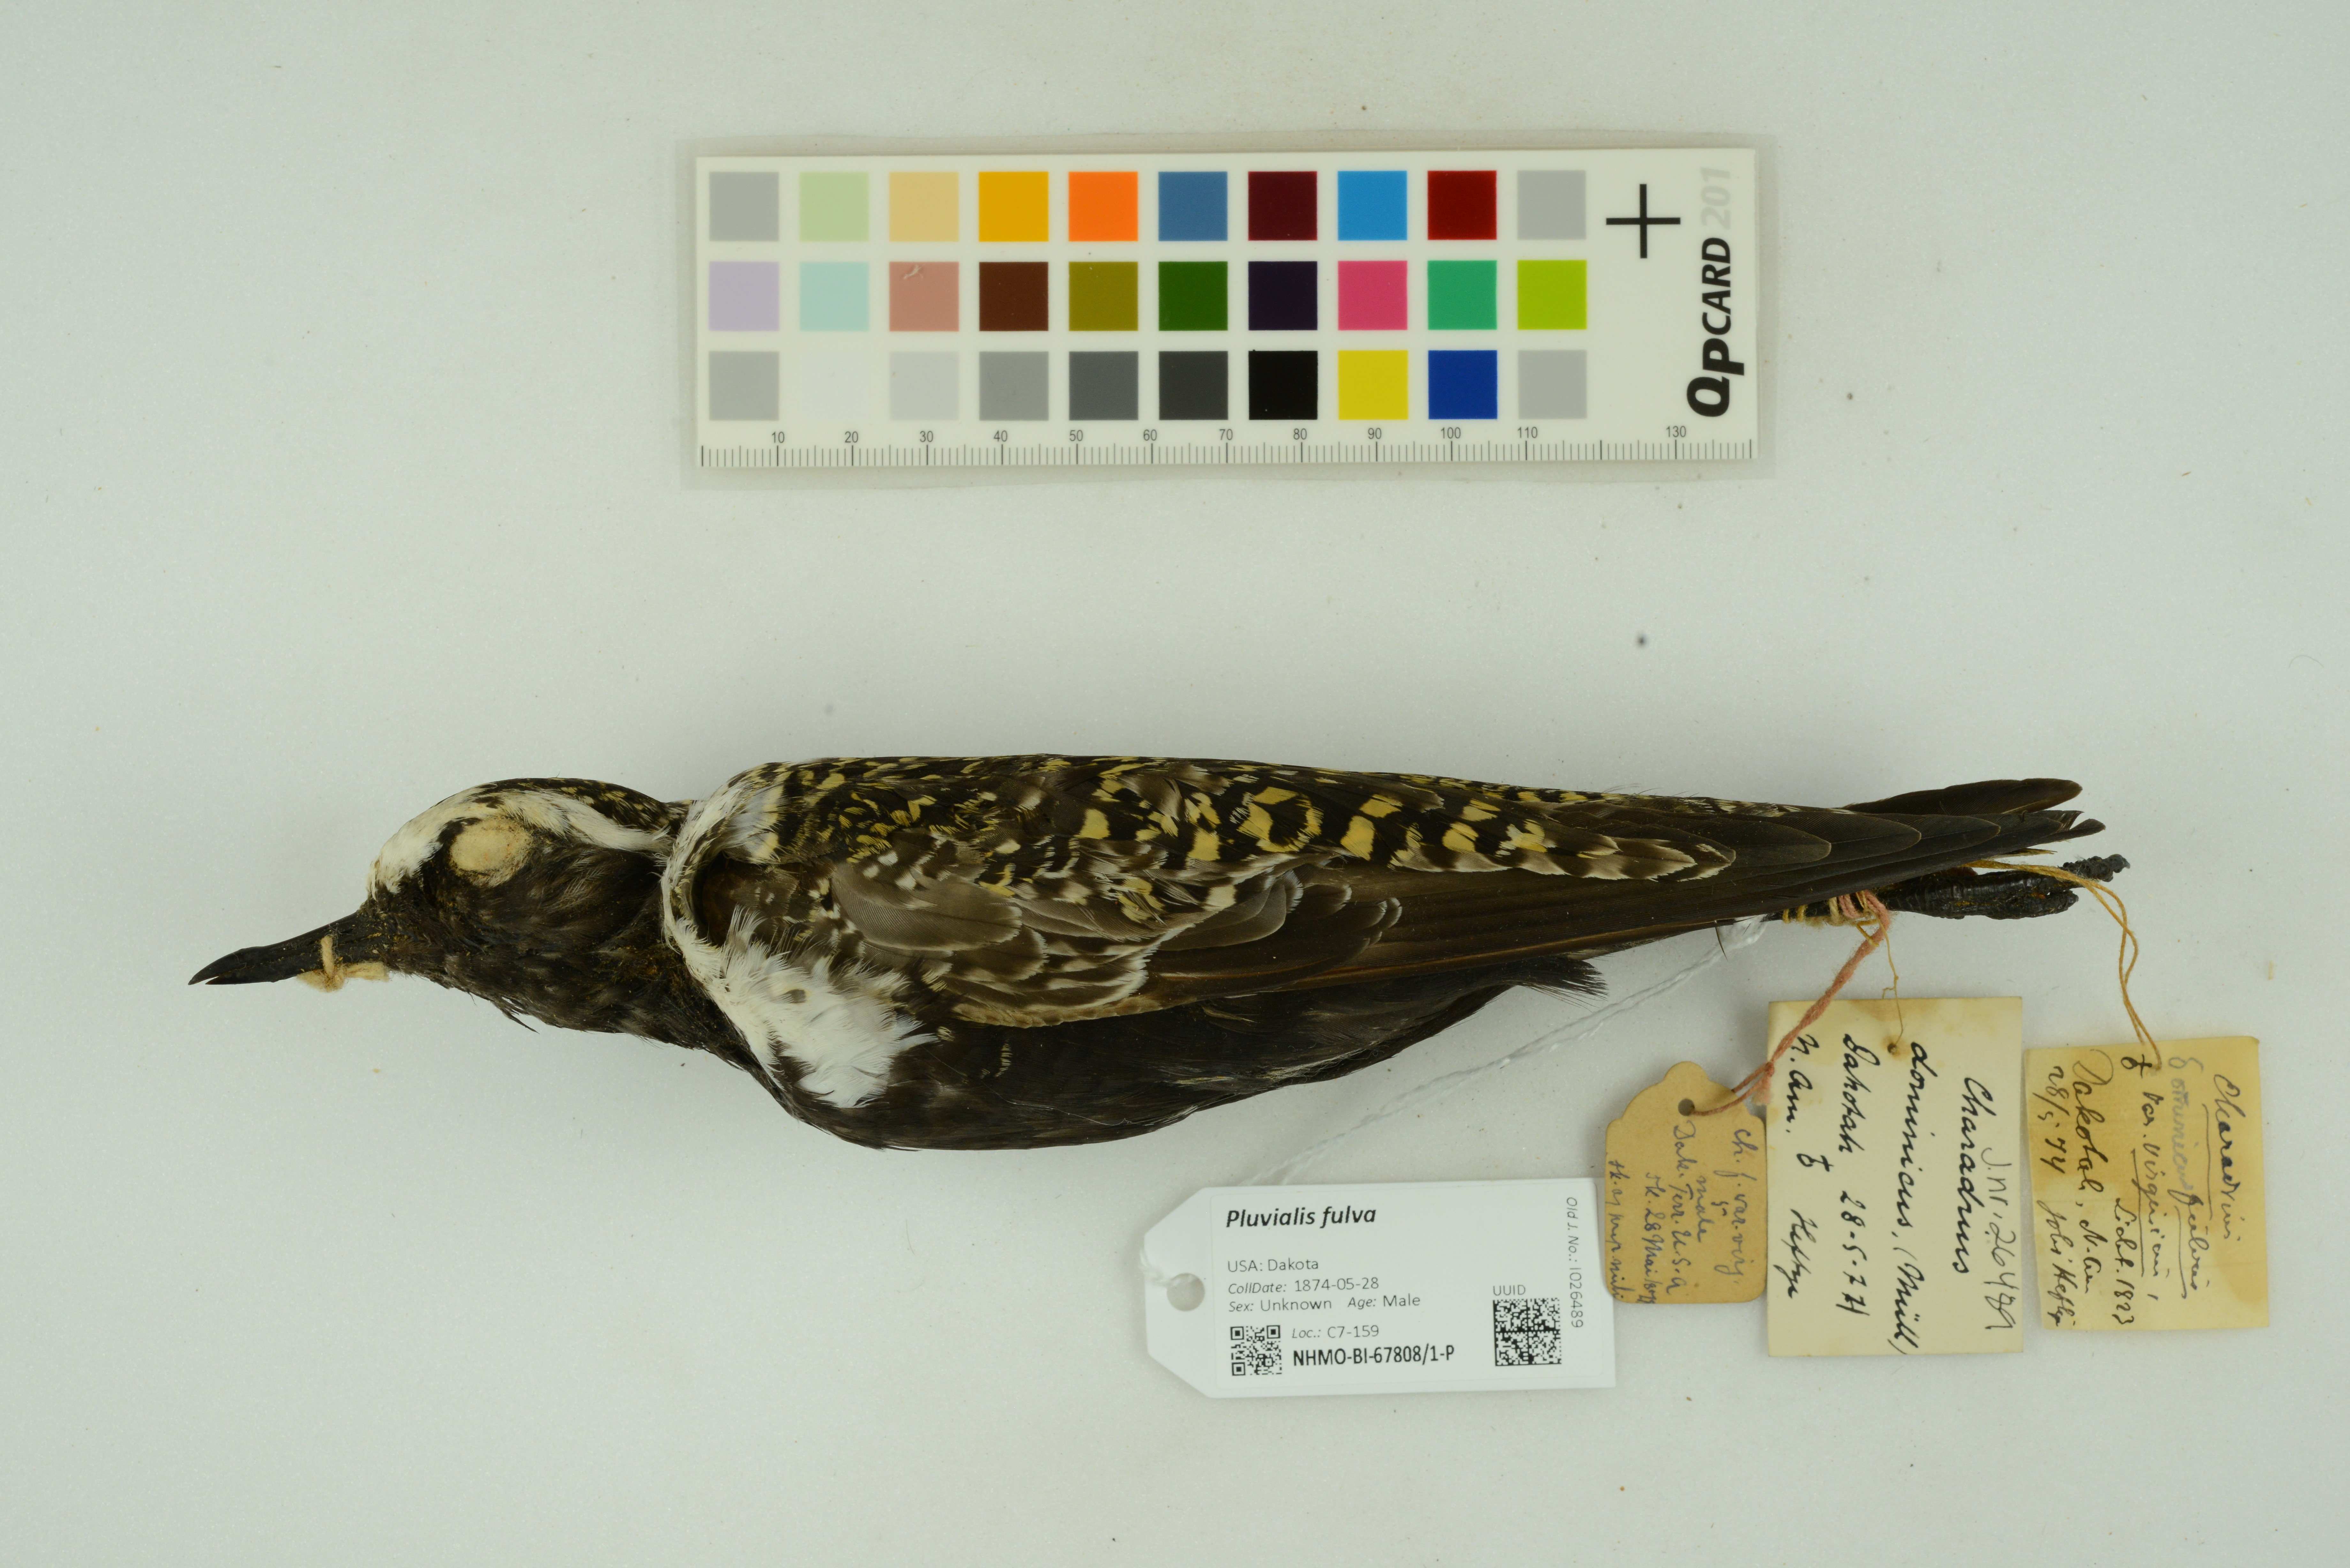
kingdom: Animalia
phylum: Chordata
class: Aves
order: Charadriiformes
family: Charadriidae
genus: Pluvialis
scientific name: Pluvialis fulva
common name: Pacific golden plover
